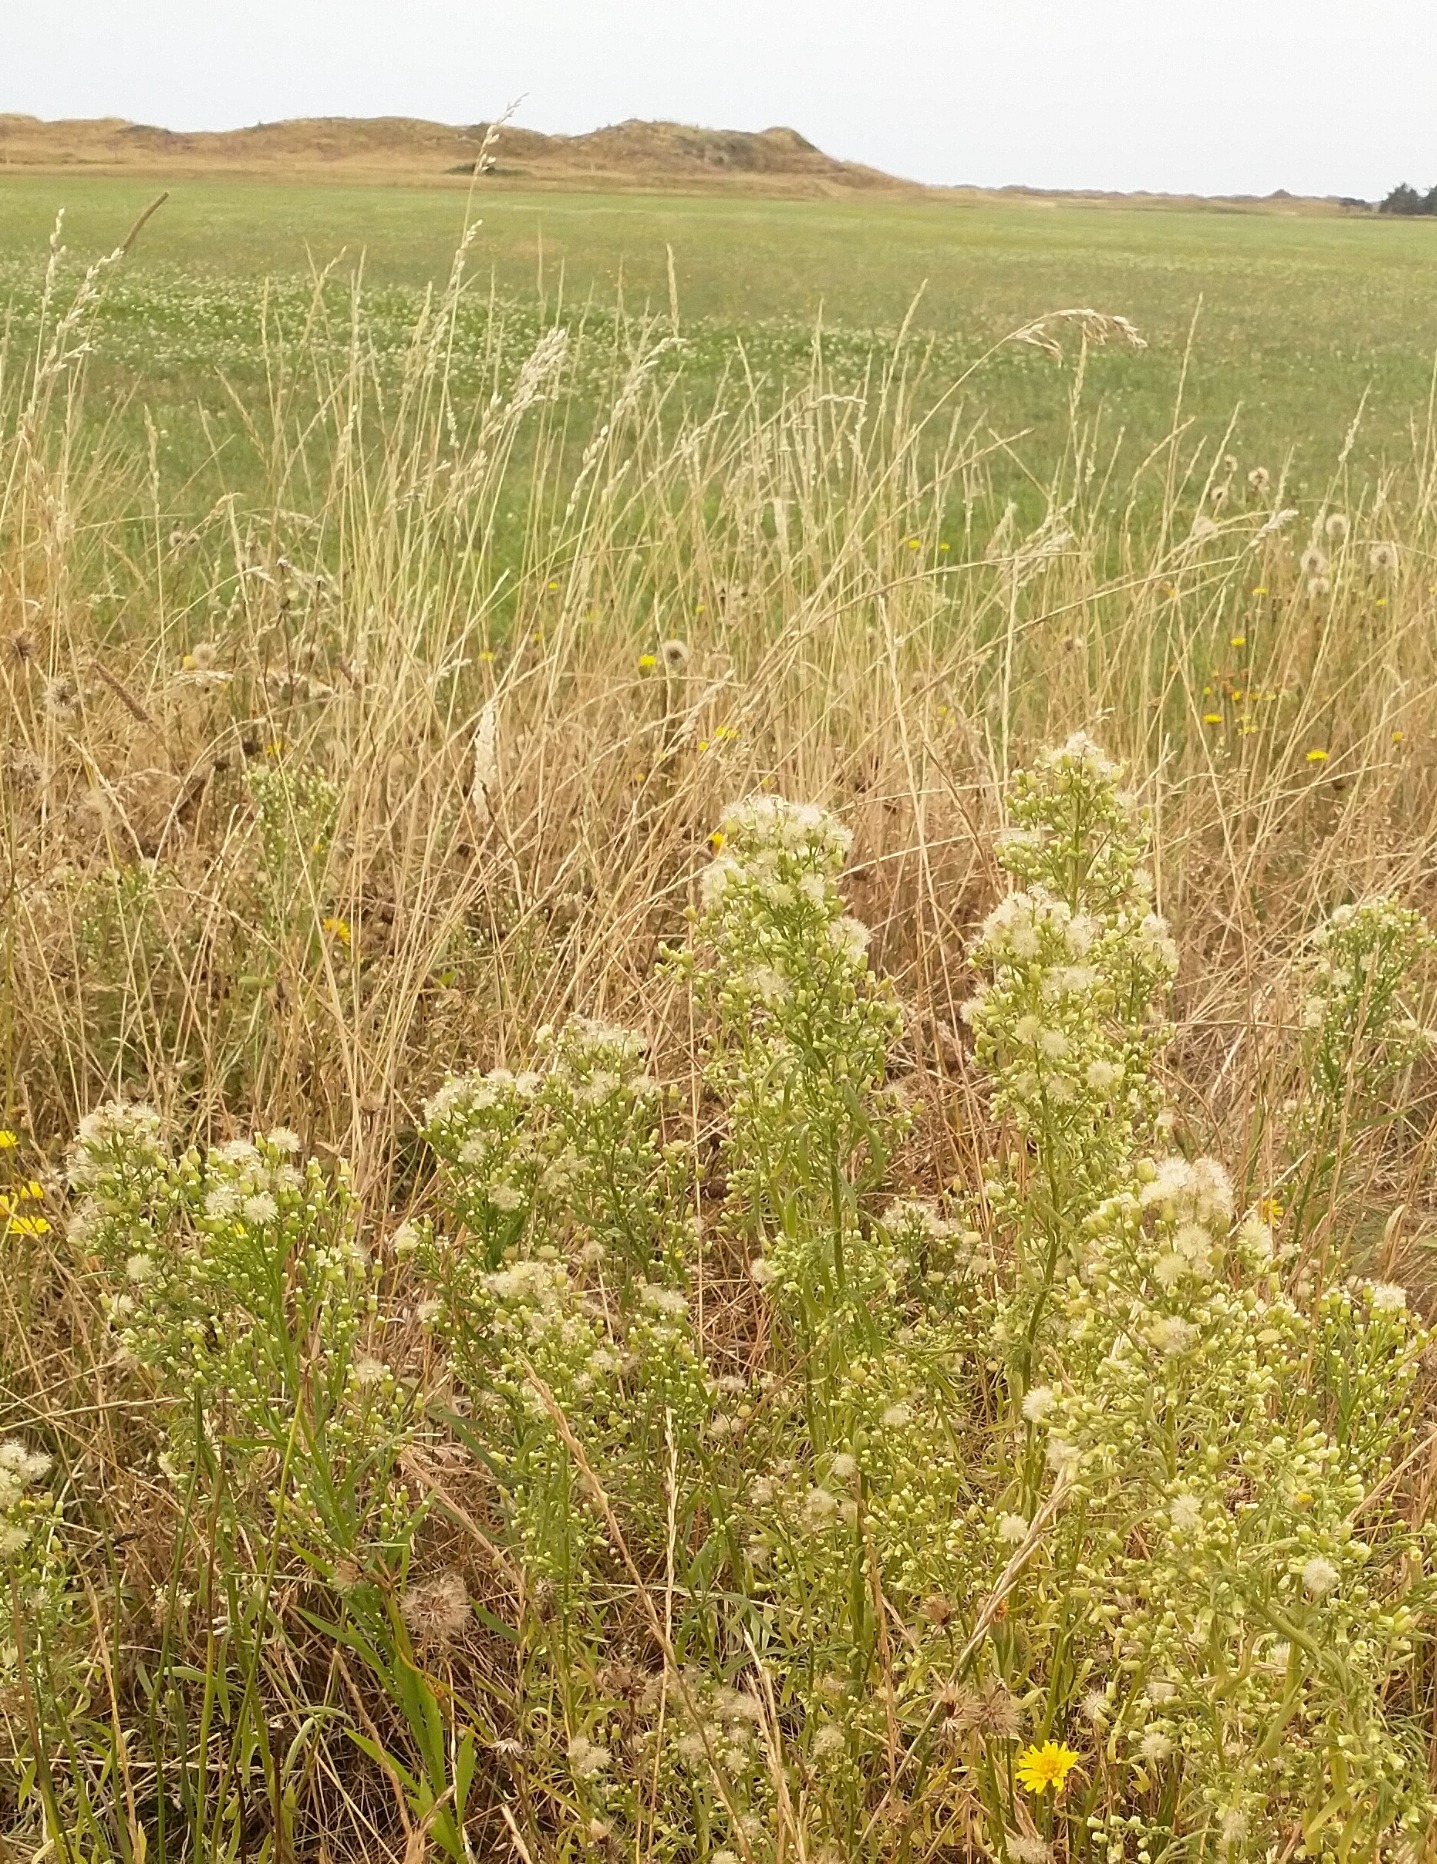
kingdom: Plantae
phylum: Tracheophyta
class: Magnoliopsida
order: Asterales
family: Asteraceae
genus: Erigeron
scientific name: Erigeron canadensis
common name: Kanadisk bakkestjerne
